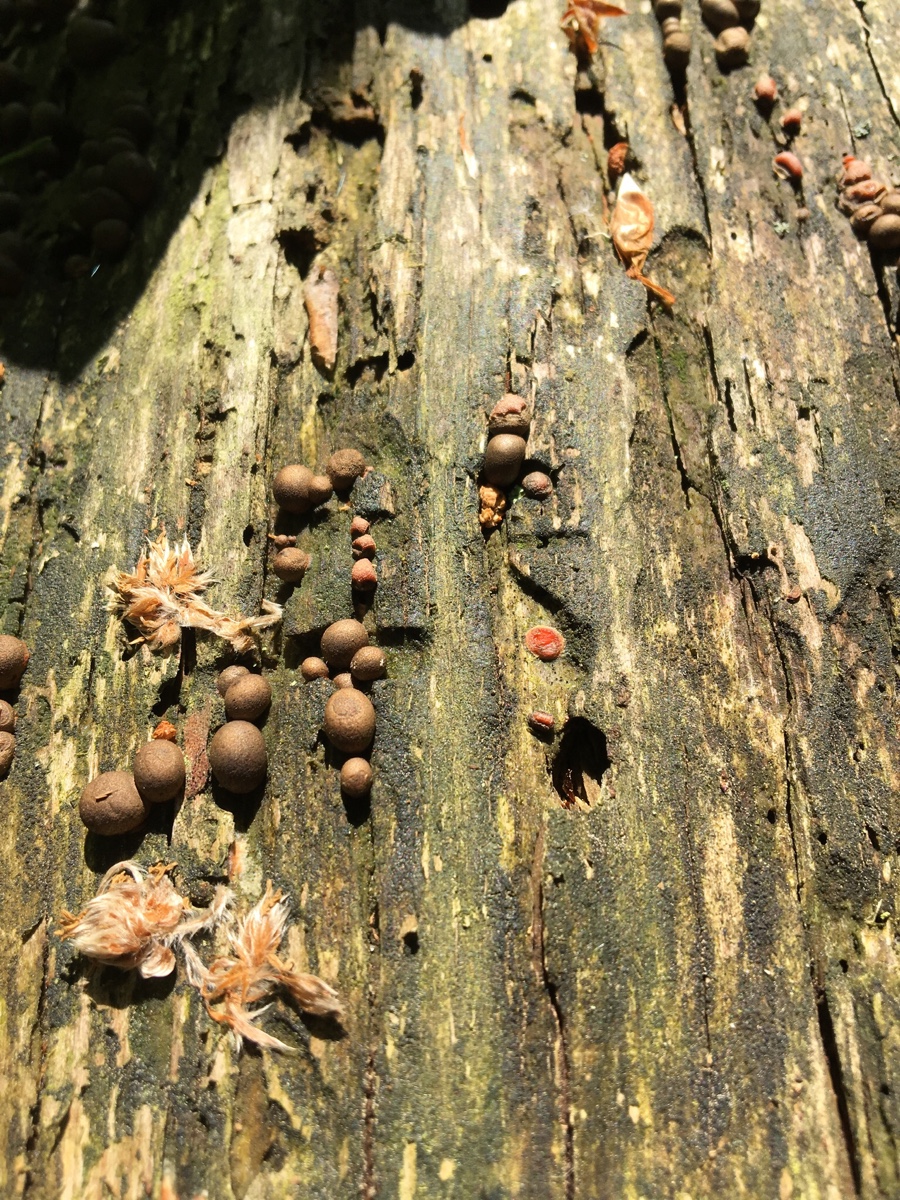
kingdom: Protozoa
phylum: Mycetozoa
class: Myxomycetes
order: Cribrariales
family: Tubiferaceae
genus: Lycogala
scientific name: Lycogala epidendrum
